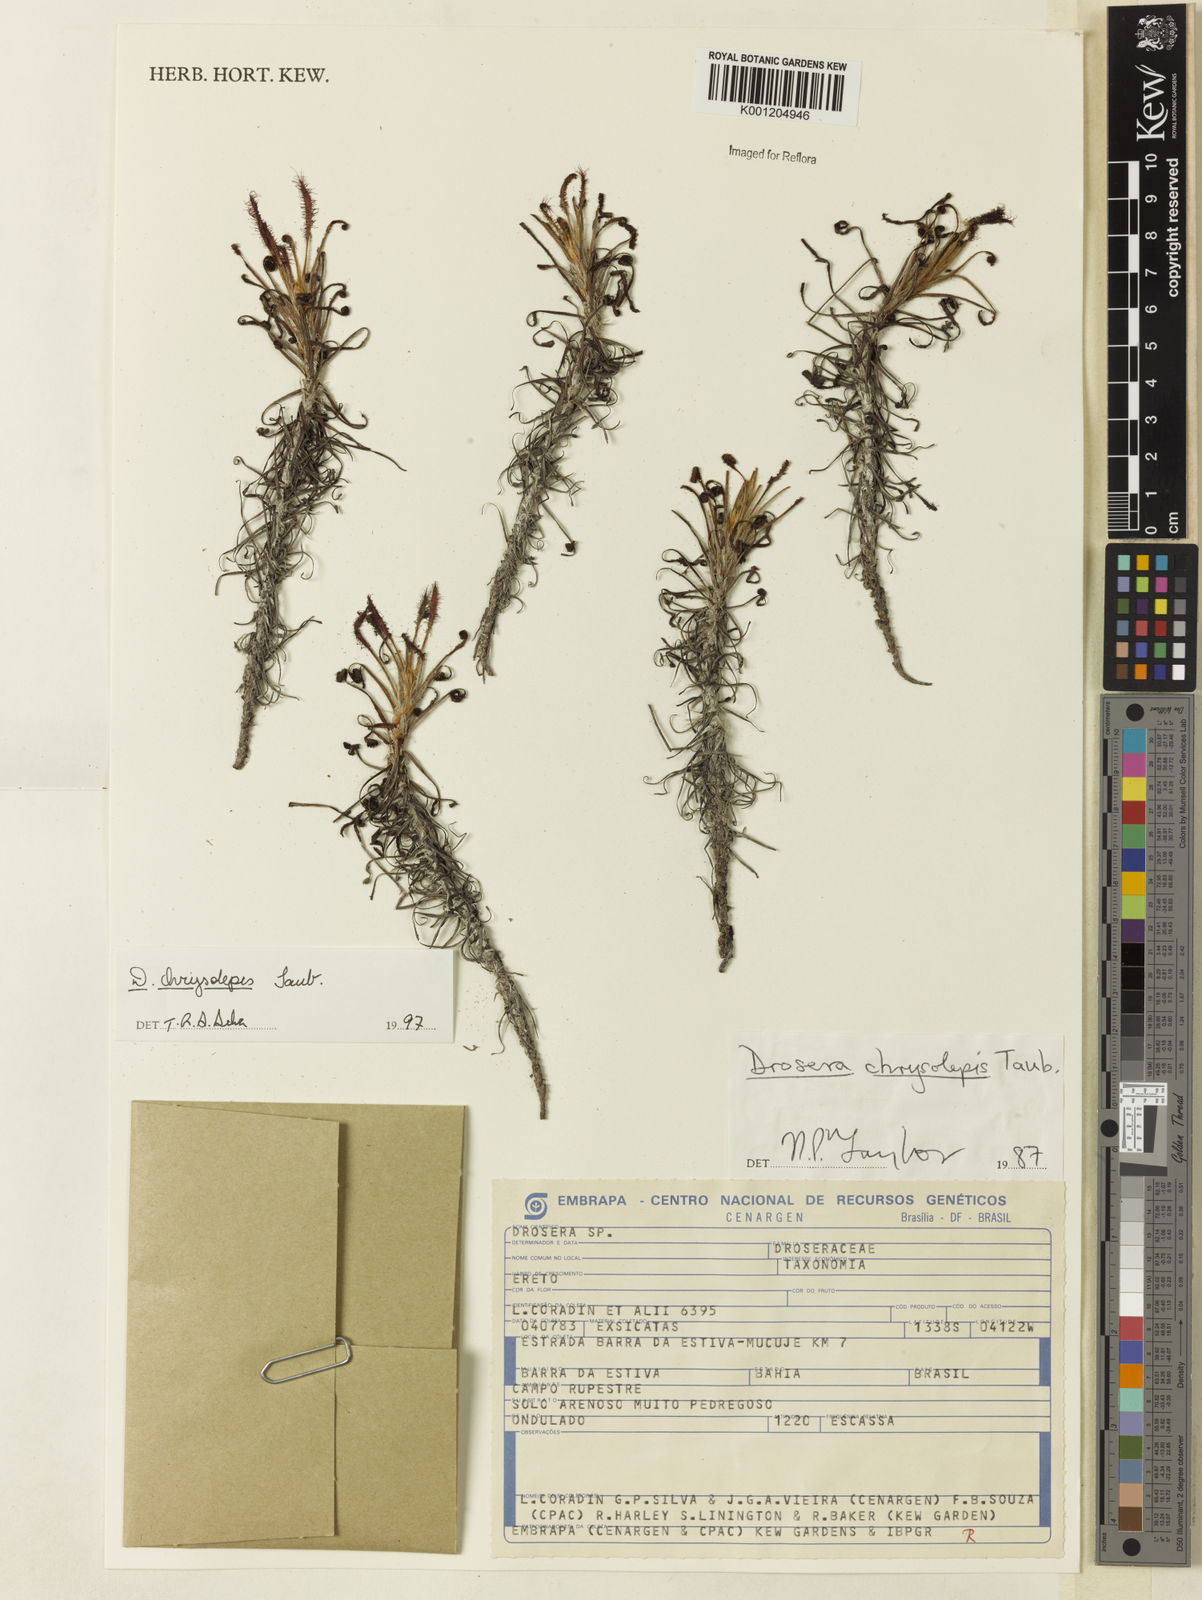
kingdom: Plantae
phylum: Tracheophyta
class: Magnoliopsida
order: Caryophyllales
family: Droseraceae
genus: Drosera
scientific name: Drosera chrysolepis
